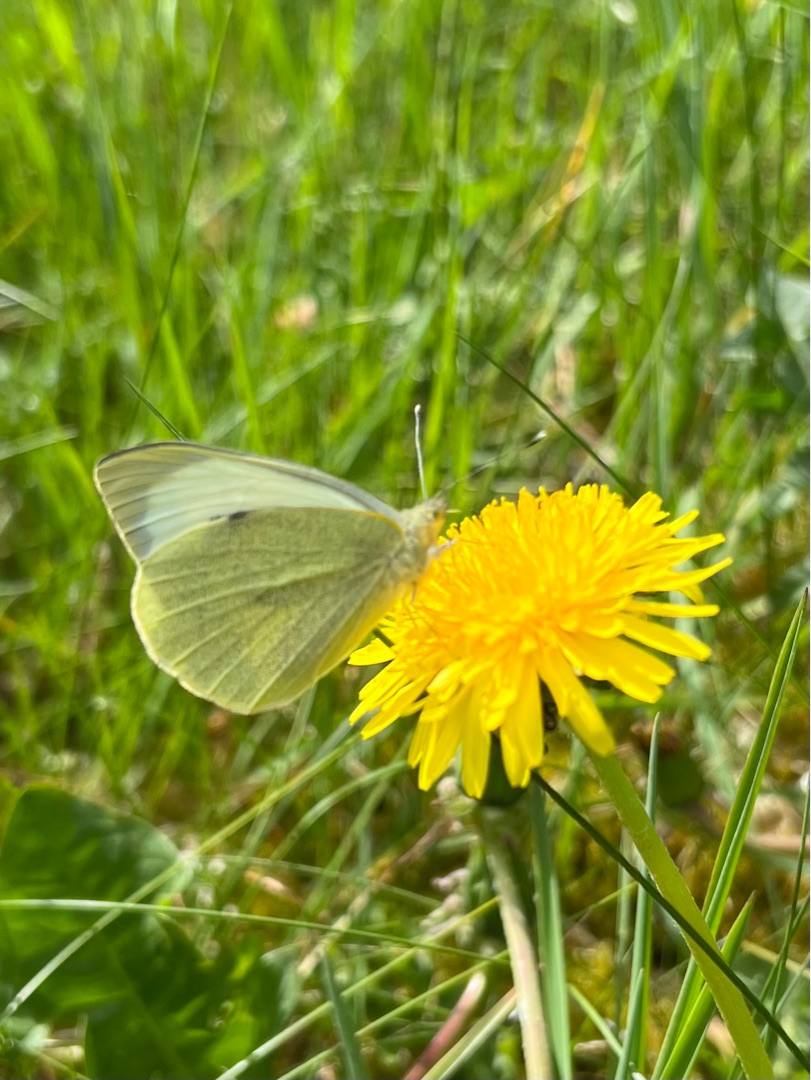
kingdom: Animalia
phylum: Arthropoda
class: Insecta
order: Lepidoptera
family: Pieridae
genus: Pieris
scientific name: Pieris brassicae
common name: Stor kålsommerfugl
